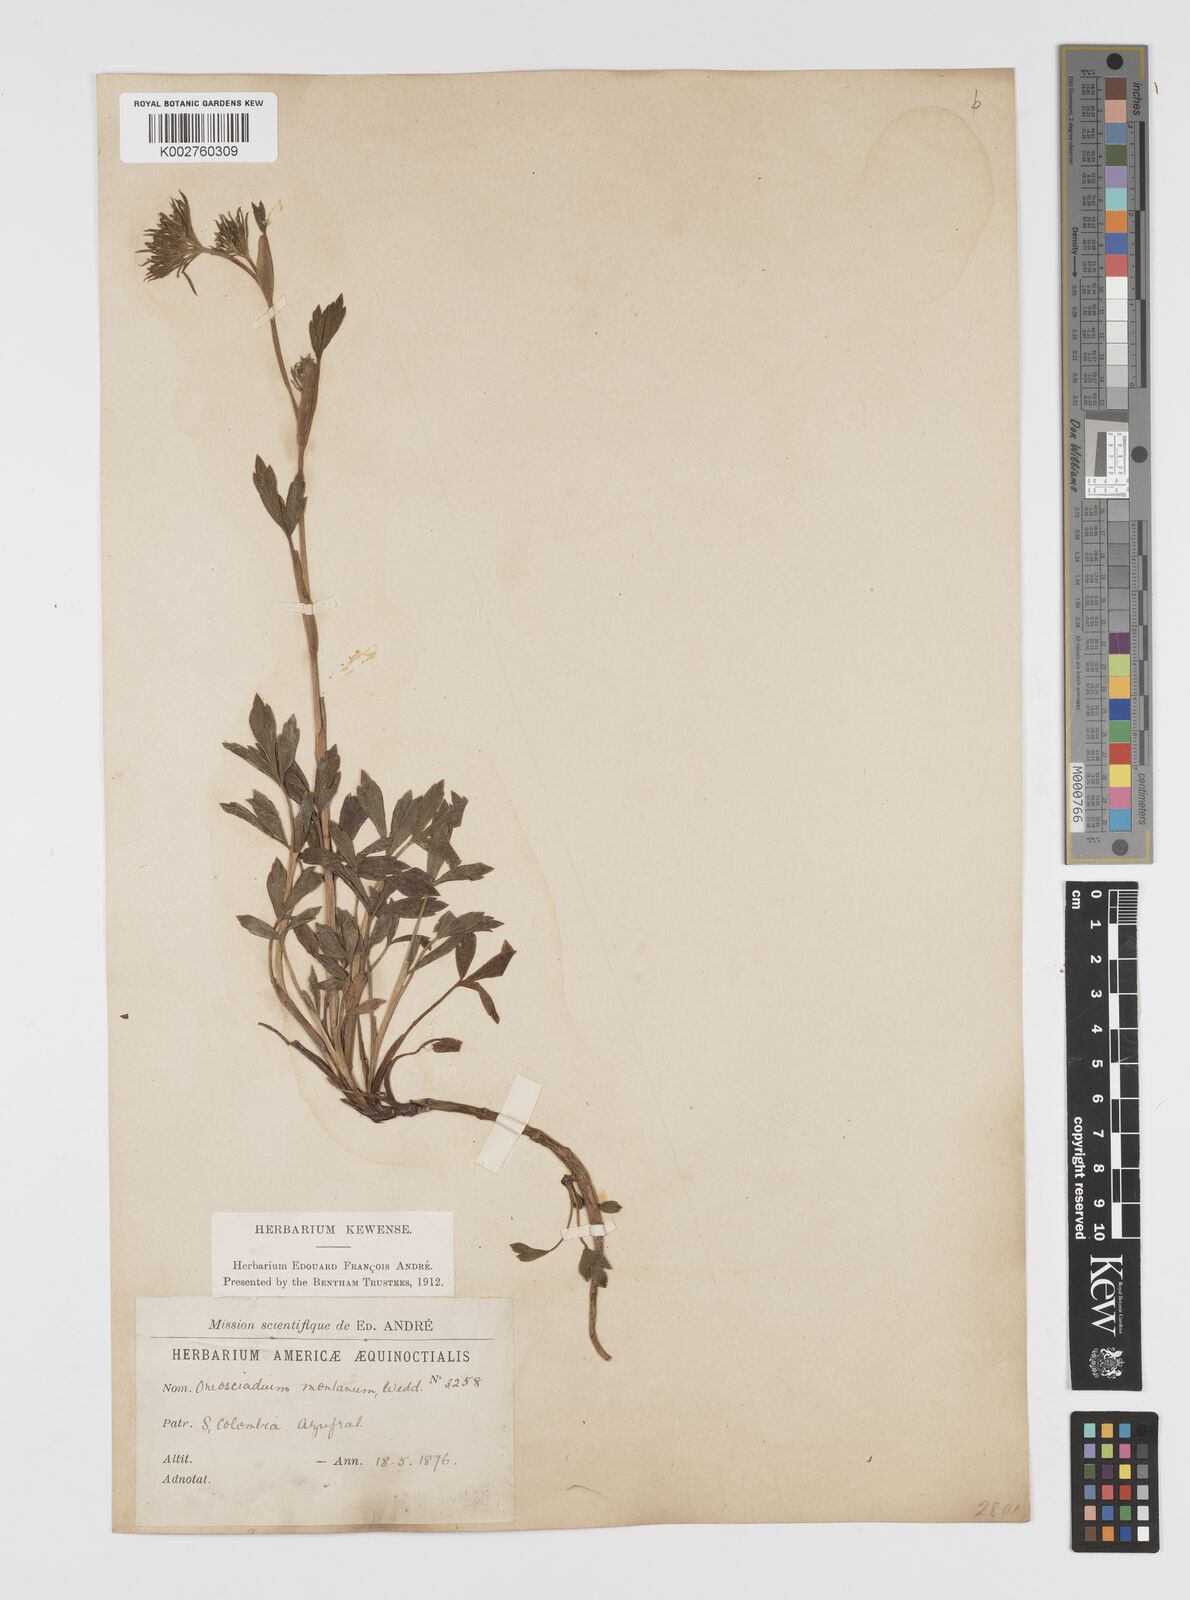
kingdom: Plantae
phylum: Tracheophyta
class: Magnoliopsida
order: Apiales
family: Apiaceae
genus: Niphogeton
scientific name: Niphogeton ternata
